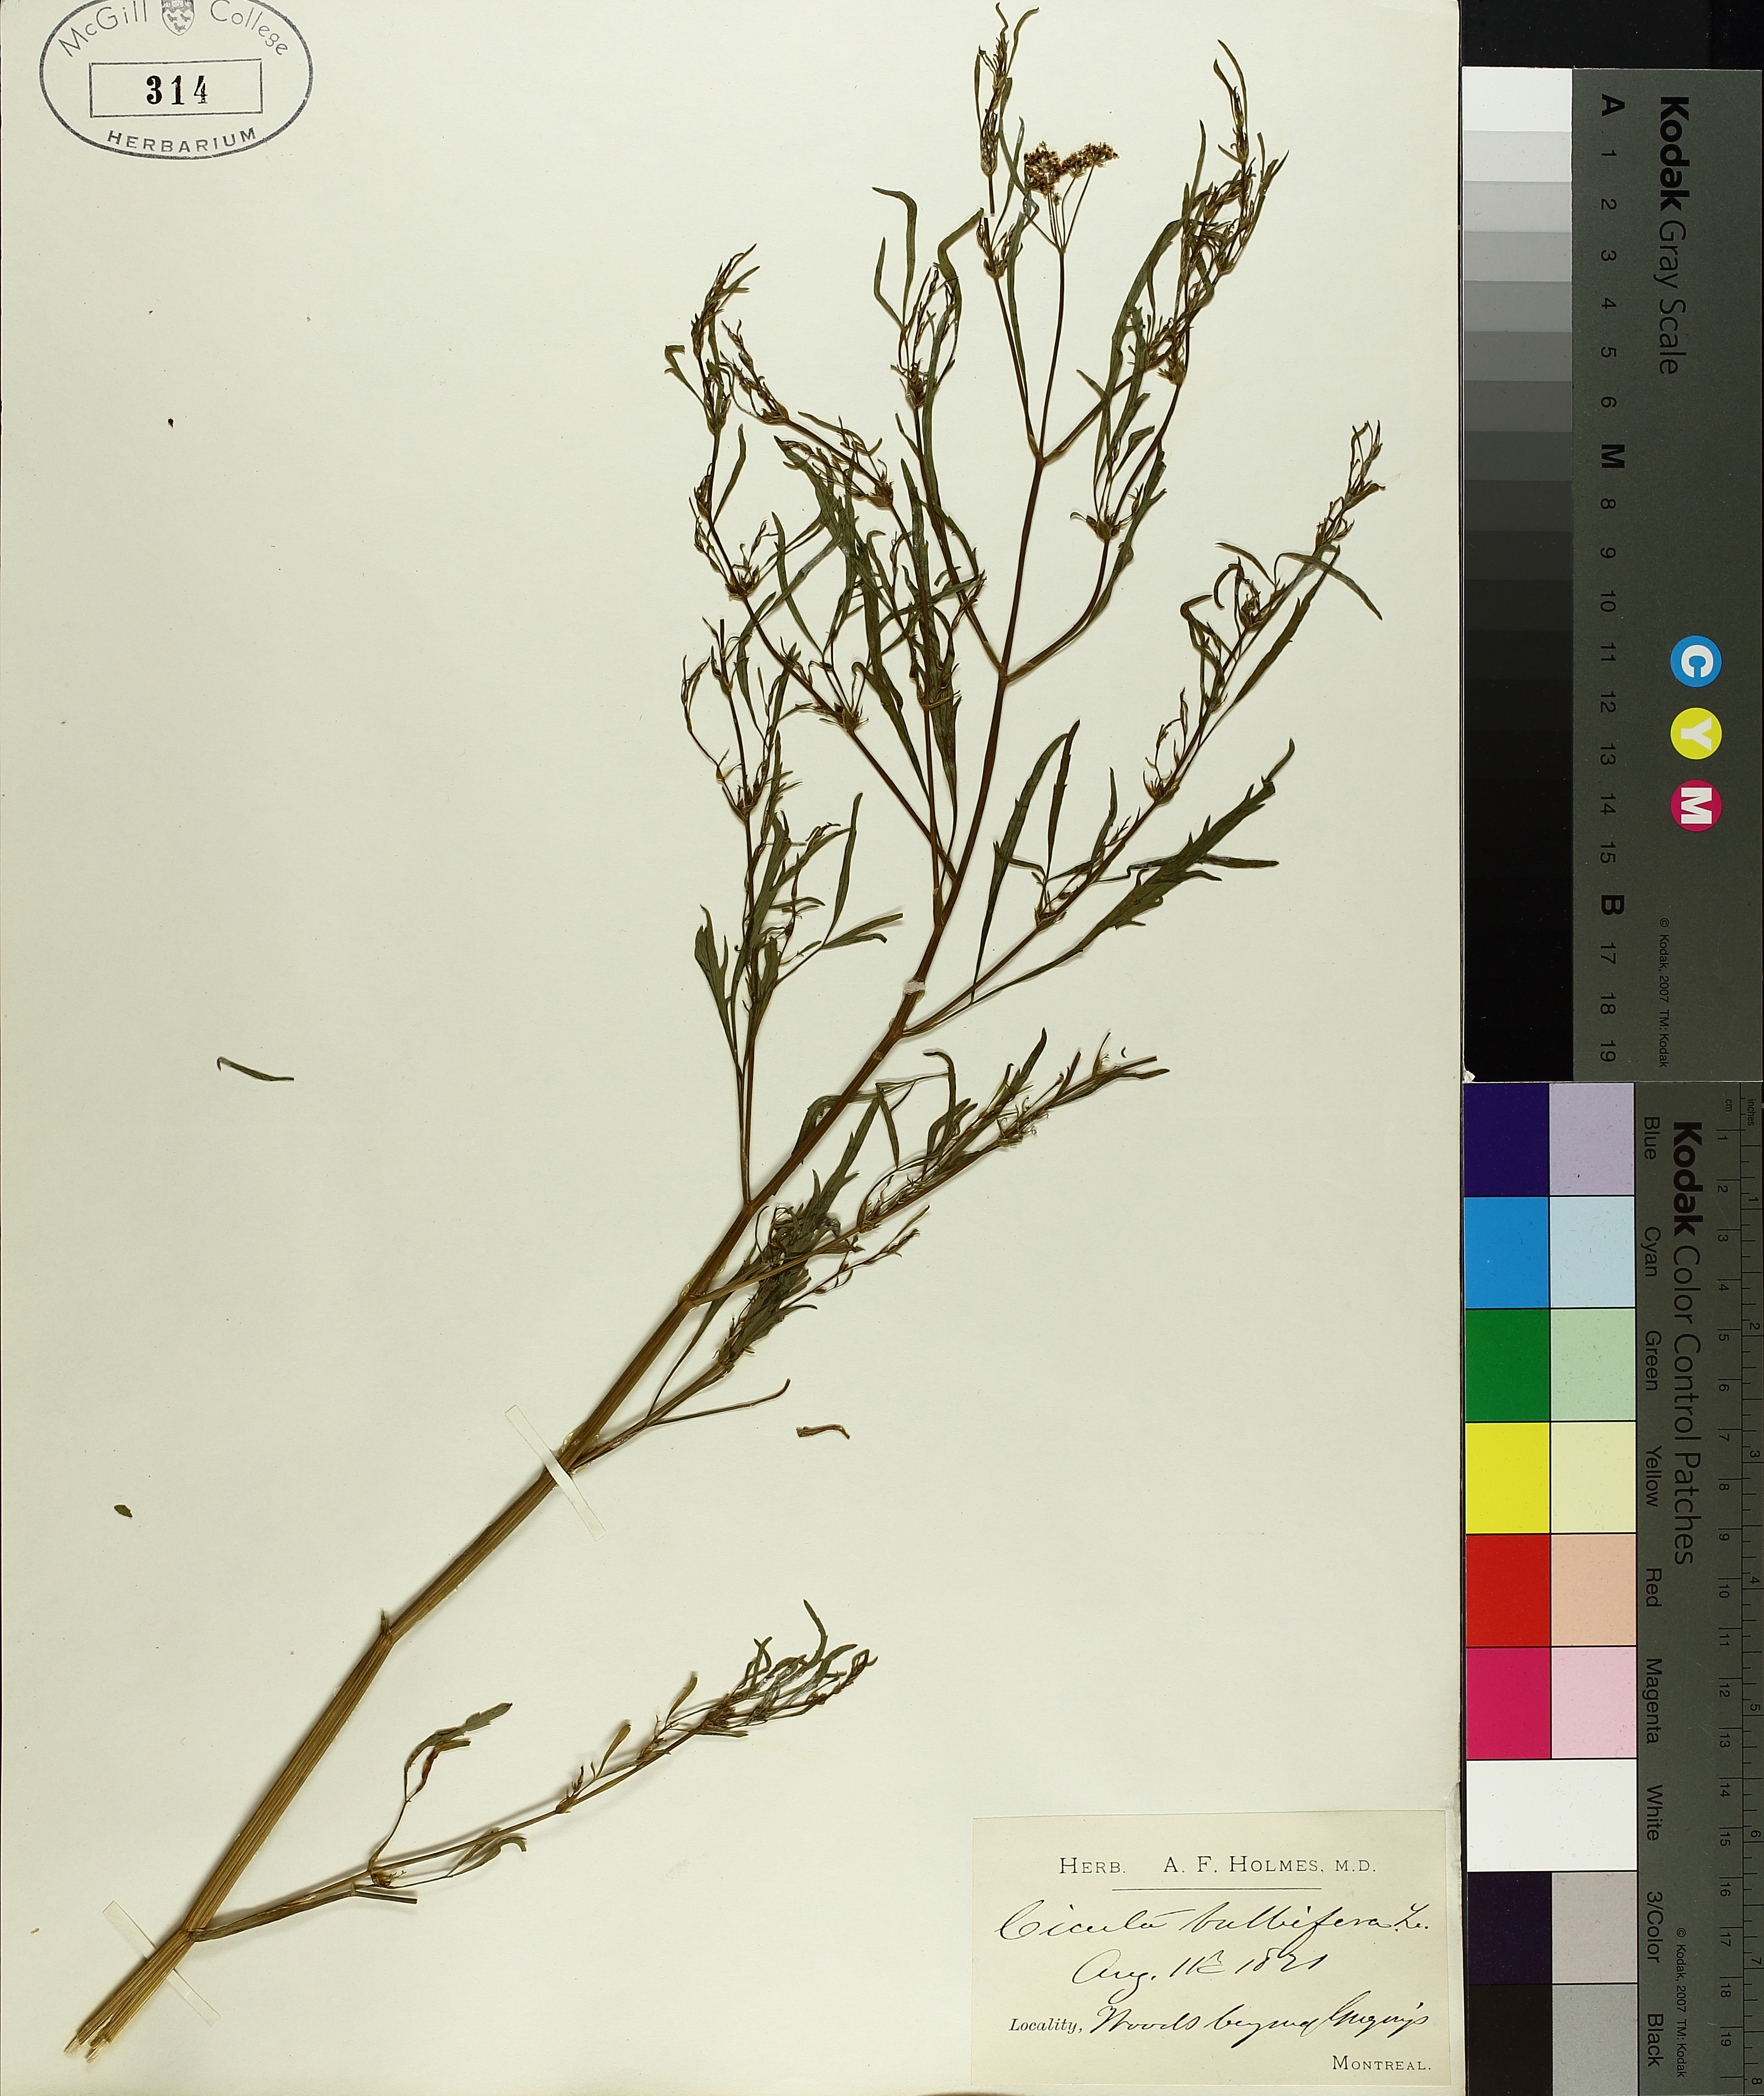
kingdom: Plantae
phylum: Tracheophyta
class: Magnoliopsida
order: Apiales
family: Apiaceae
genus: Cicuta
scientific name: Cicuta bulbifera
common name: Bulb-bearing water-hemlock
